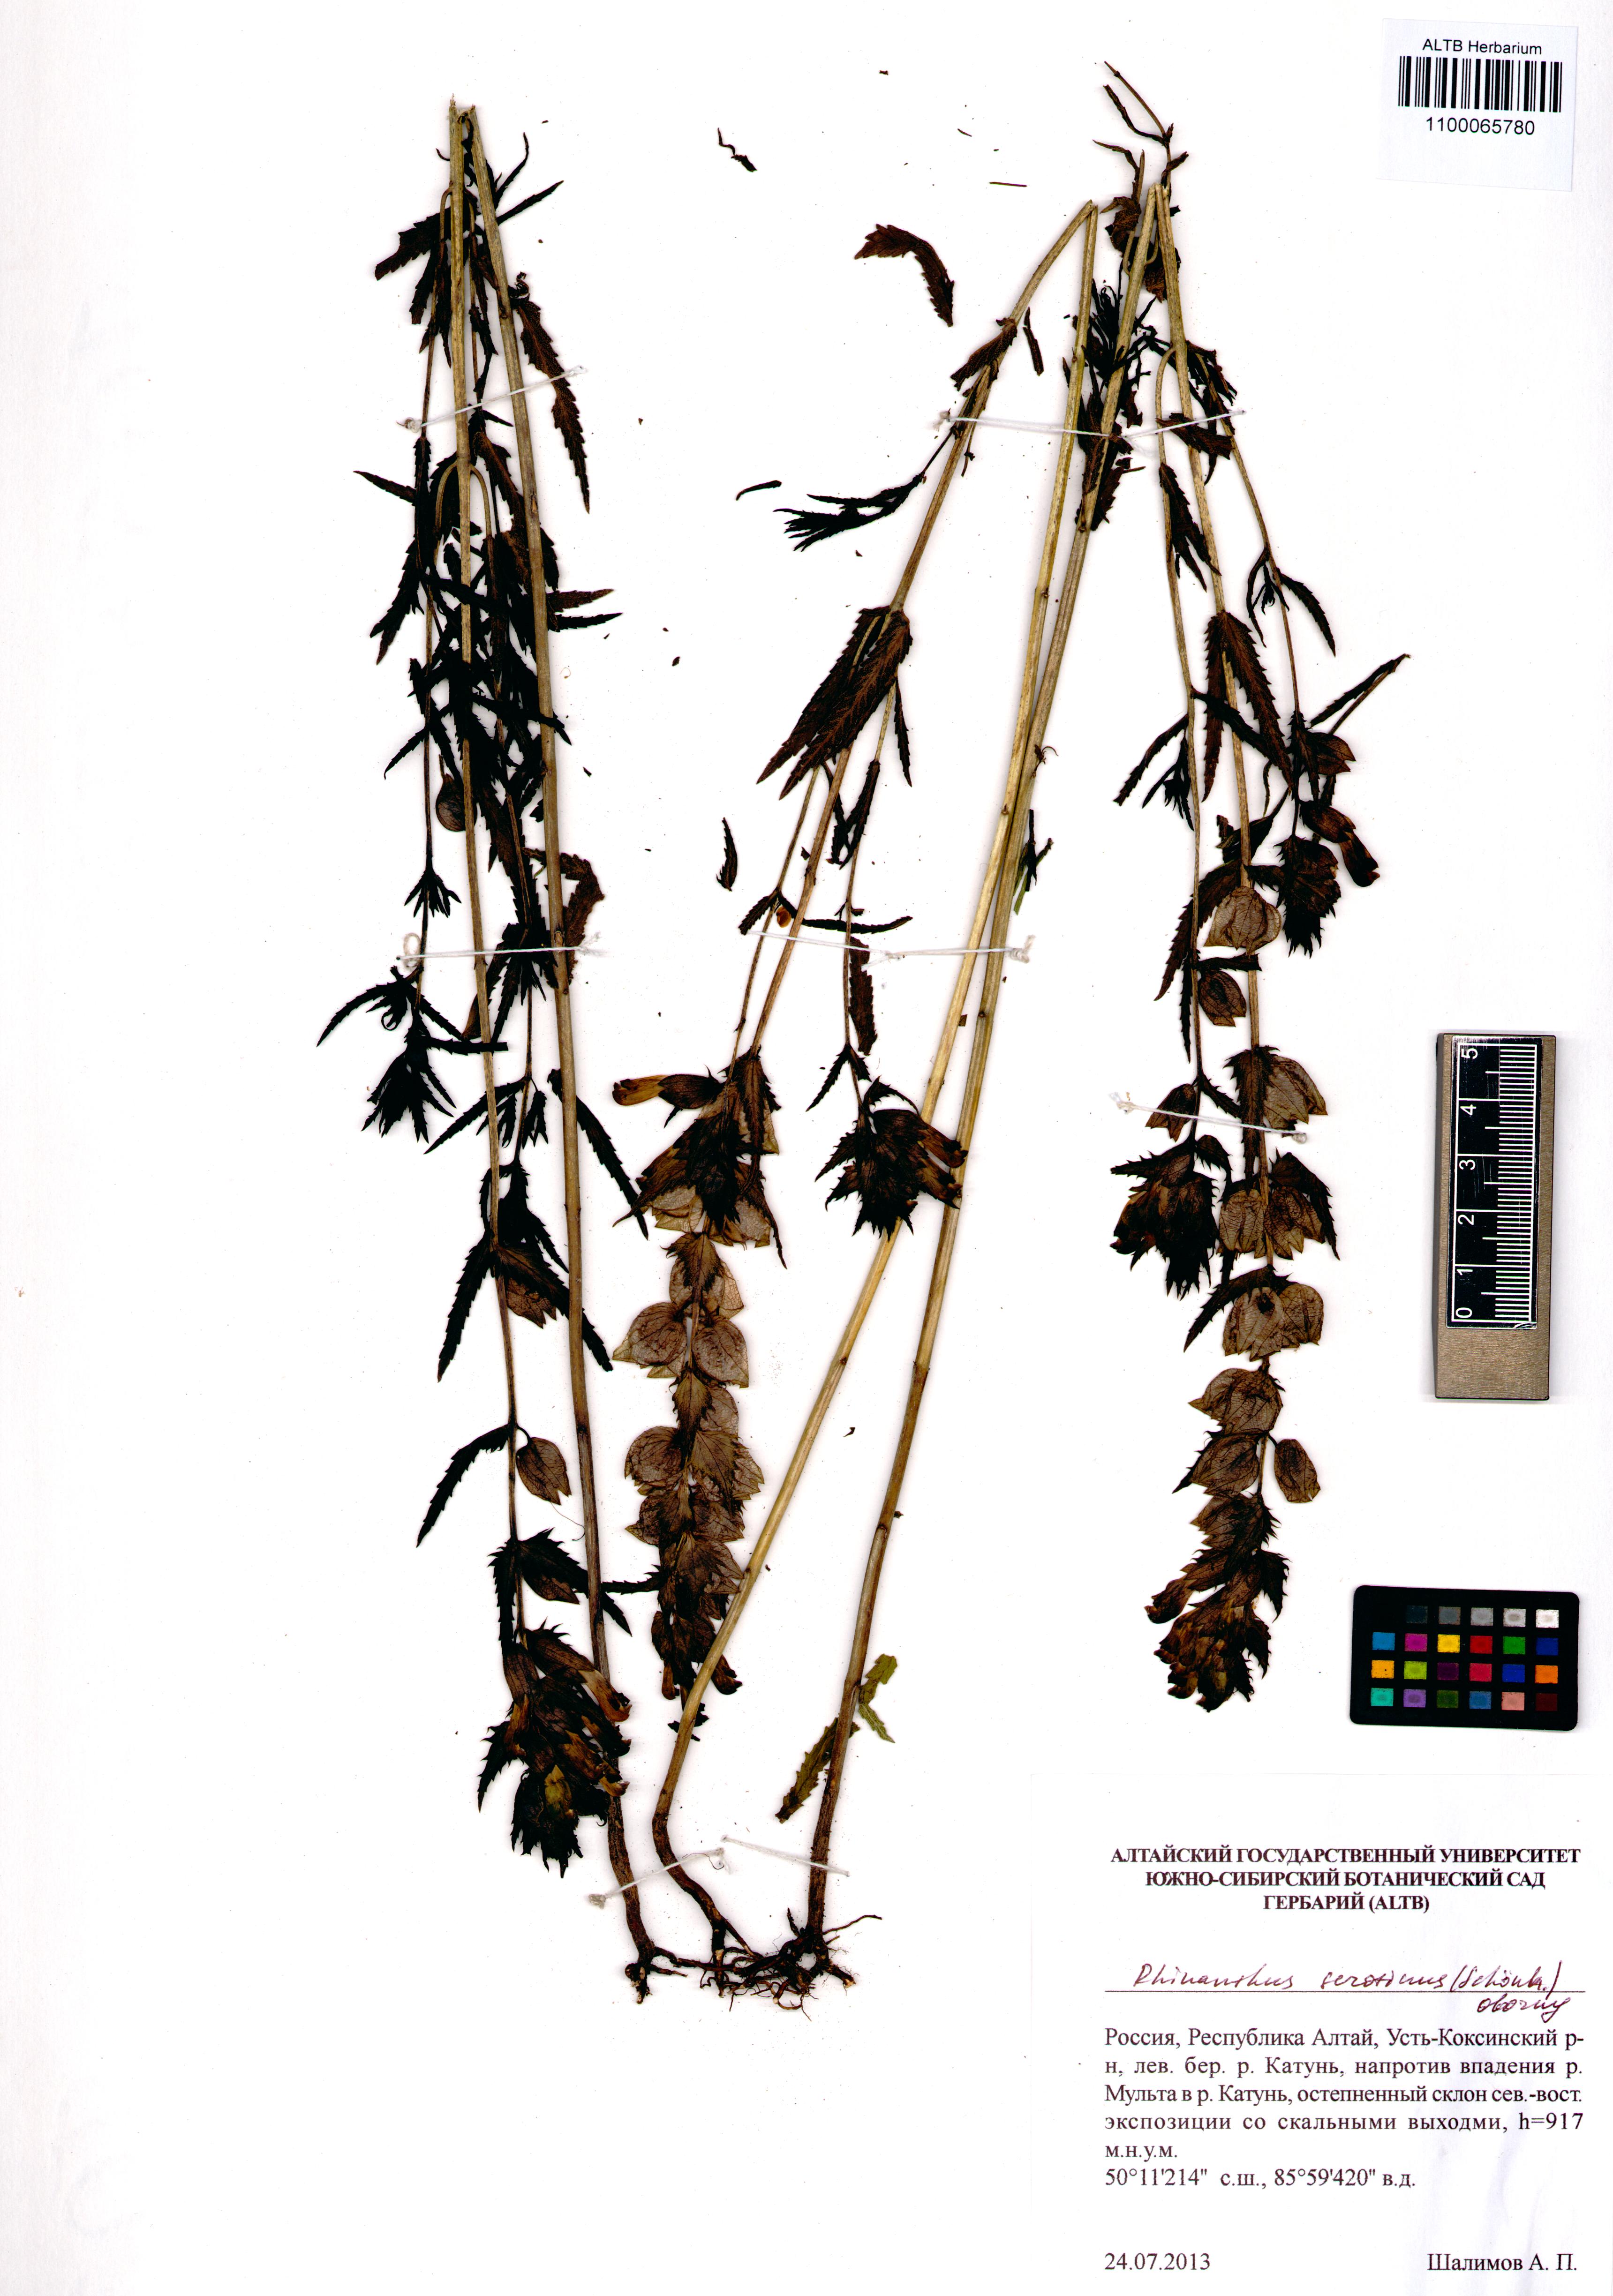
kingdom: Plantae
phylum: Tracheophyta
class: Magnoliopsida
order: Lamiales
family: Orobanchaceae
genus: Rhinanthus
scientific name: Rhinanthus serotinus
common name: Late-flowering yellow rattle
